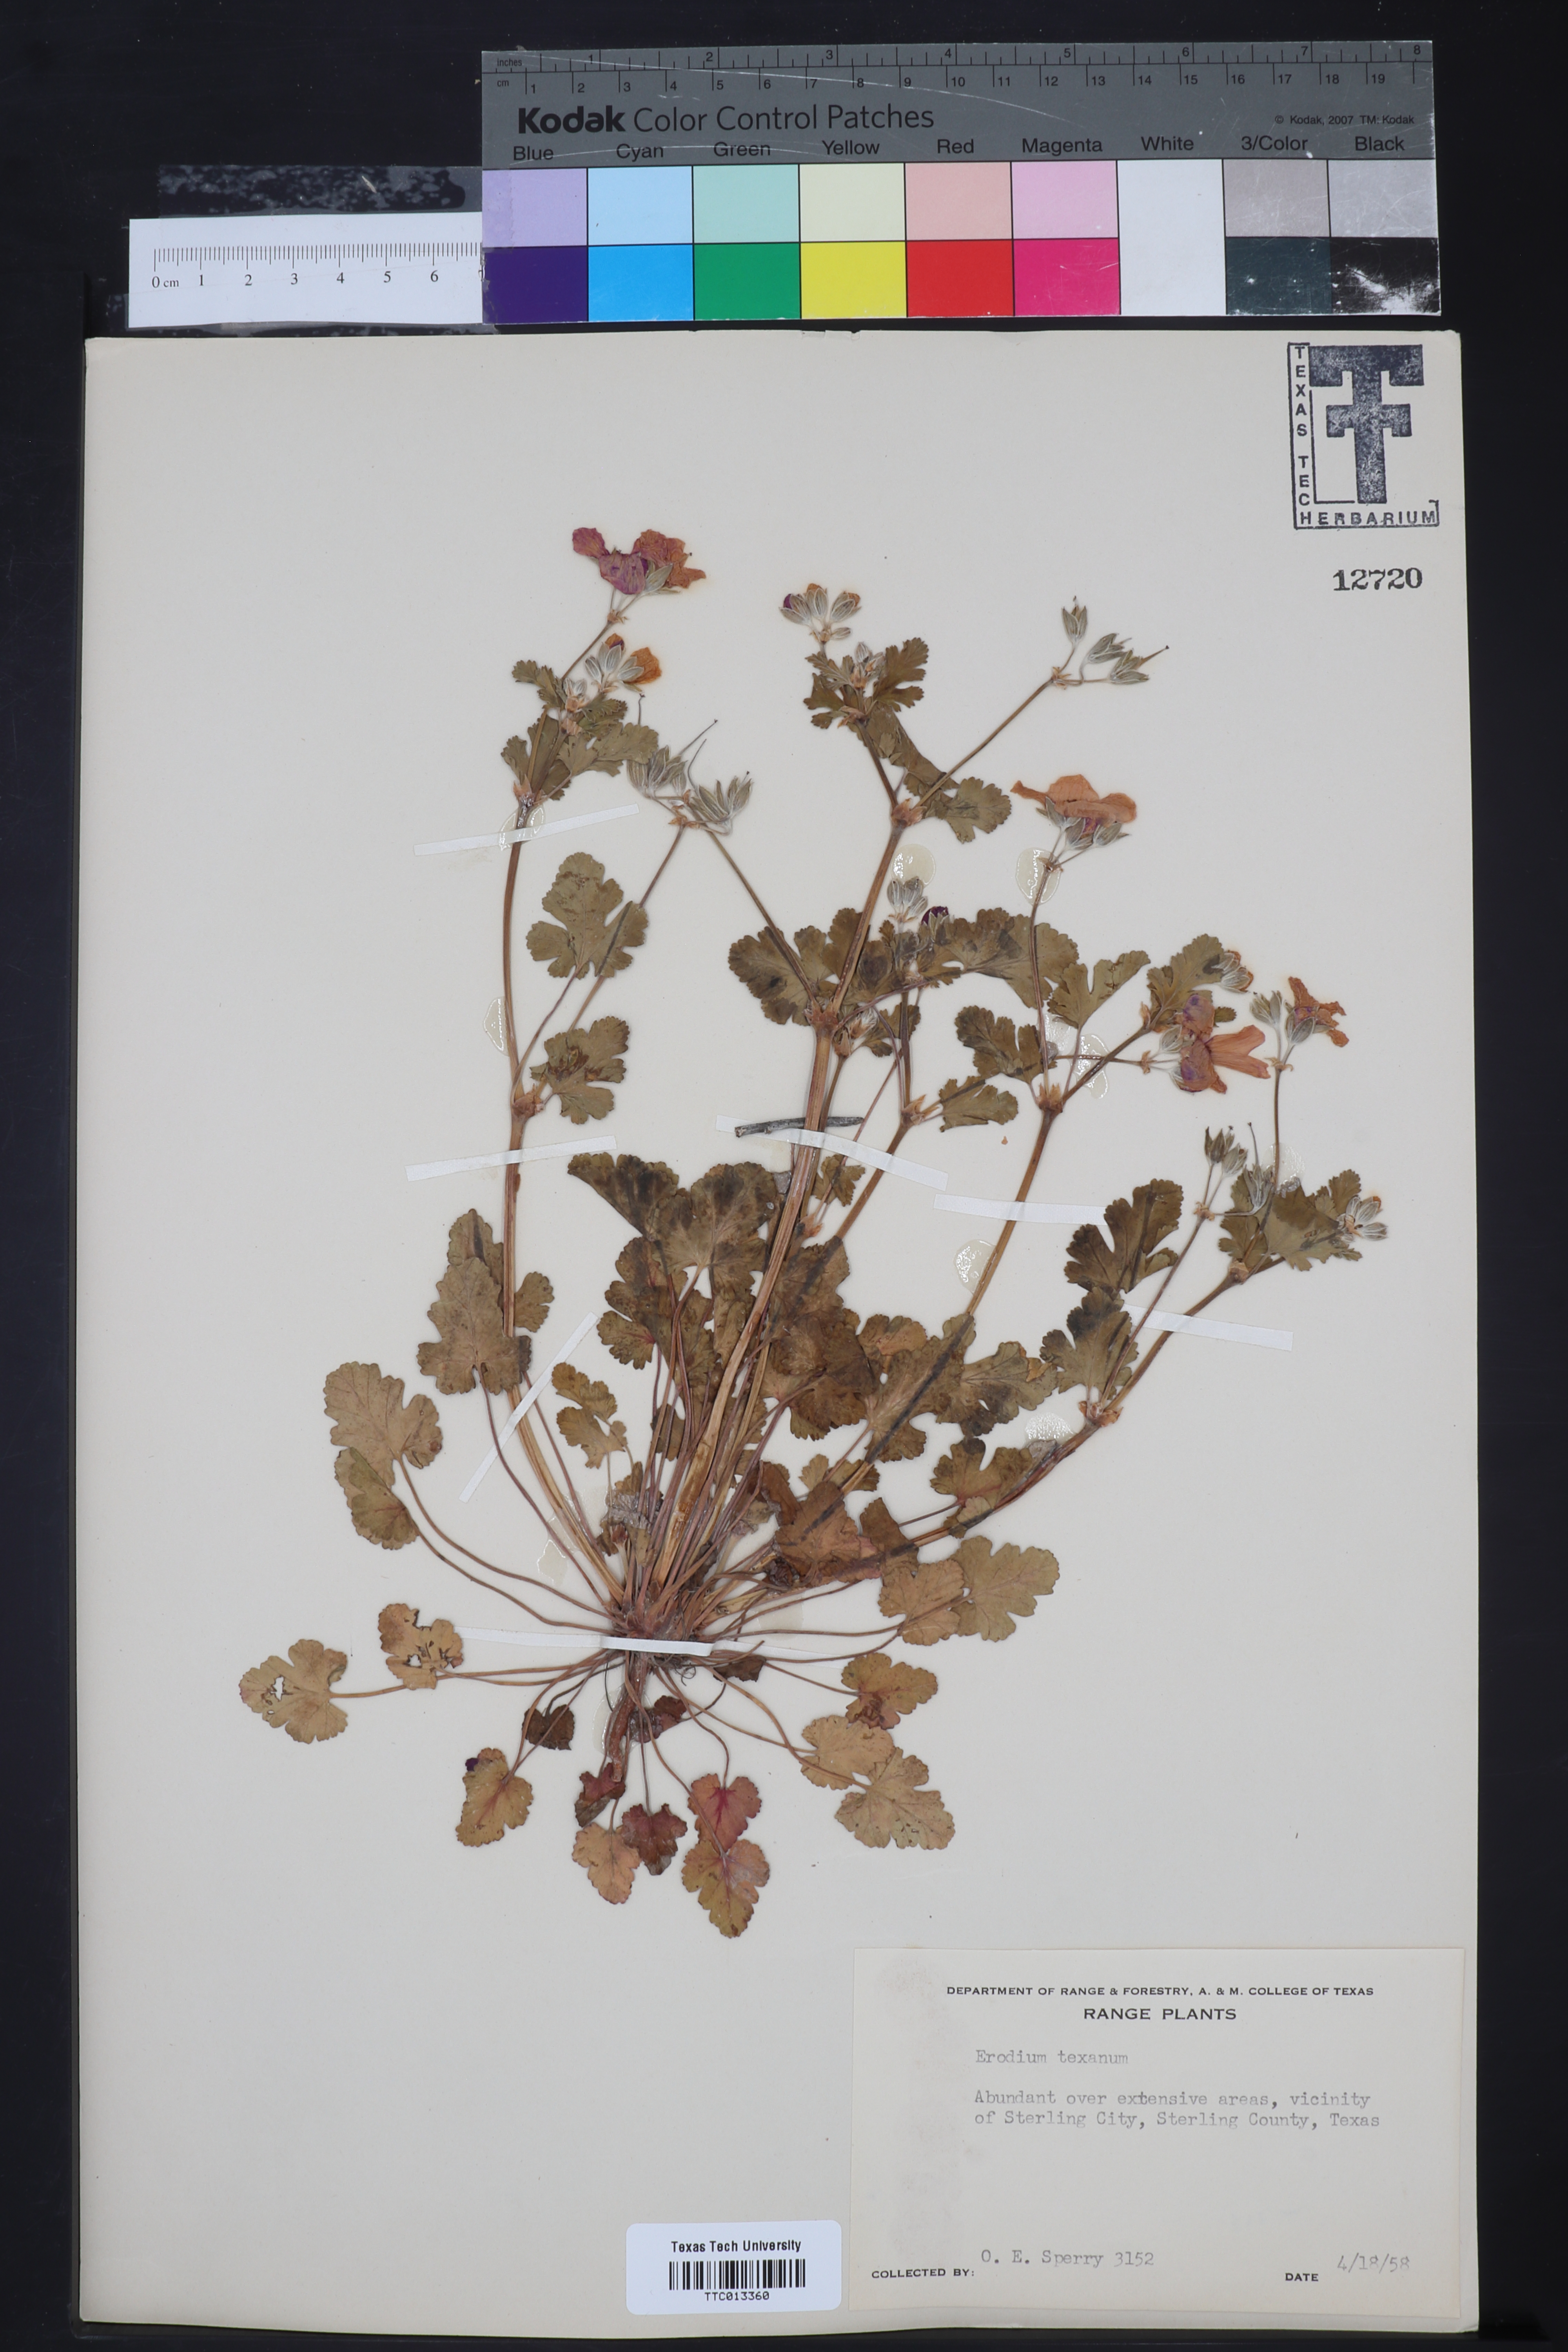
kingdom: Plantae
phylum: Tracheophyta
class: Magnoliopsida
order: Geraniales
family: Geraniaceae
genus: Erodium
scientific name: Erodium texanum
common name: Texas stork's-bill
